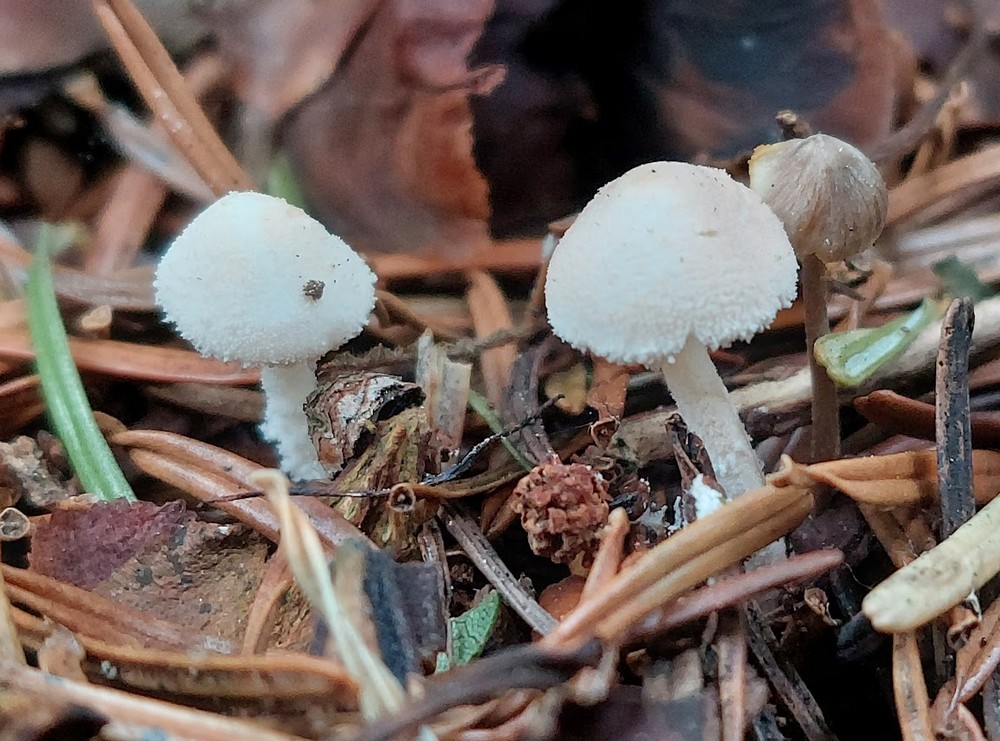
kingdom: Fungi
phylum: Basidiomycota
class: Agaricomycetes
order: Agaricales
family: Agaricaceae
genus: Cystolepiota
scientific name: Cystolepiota seminuda
